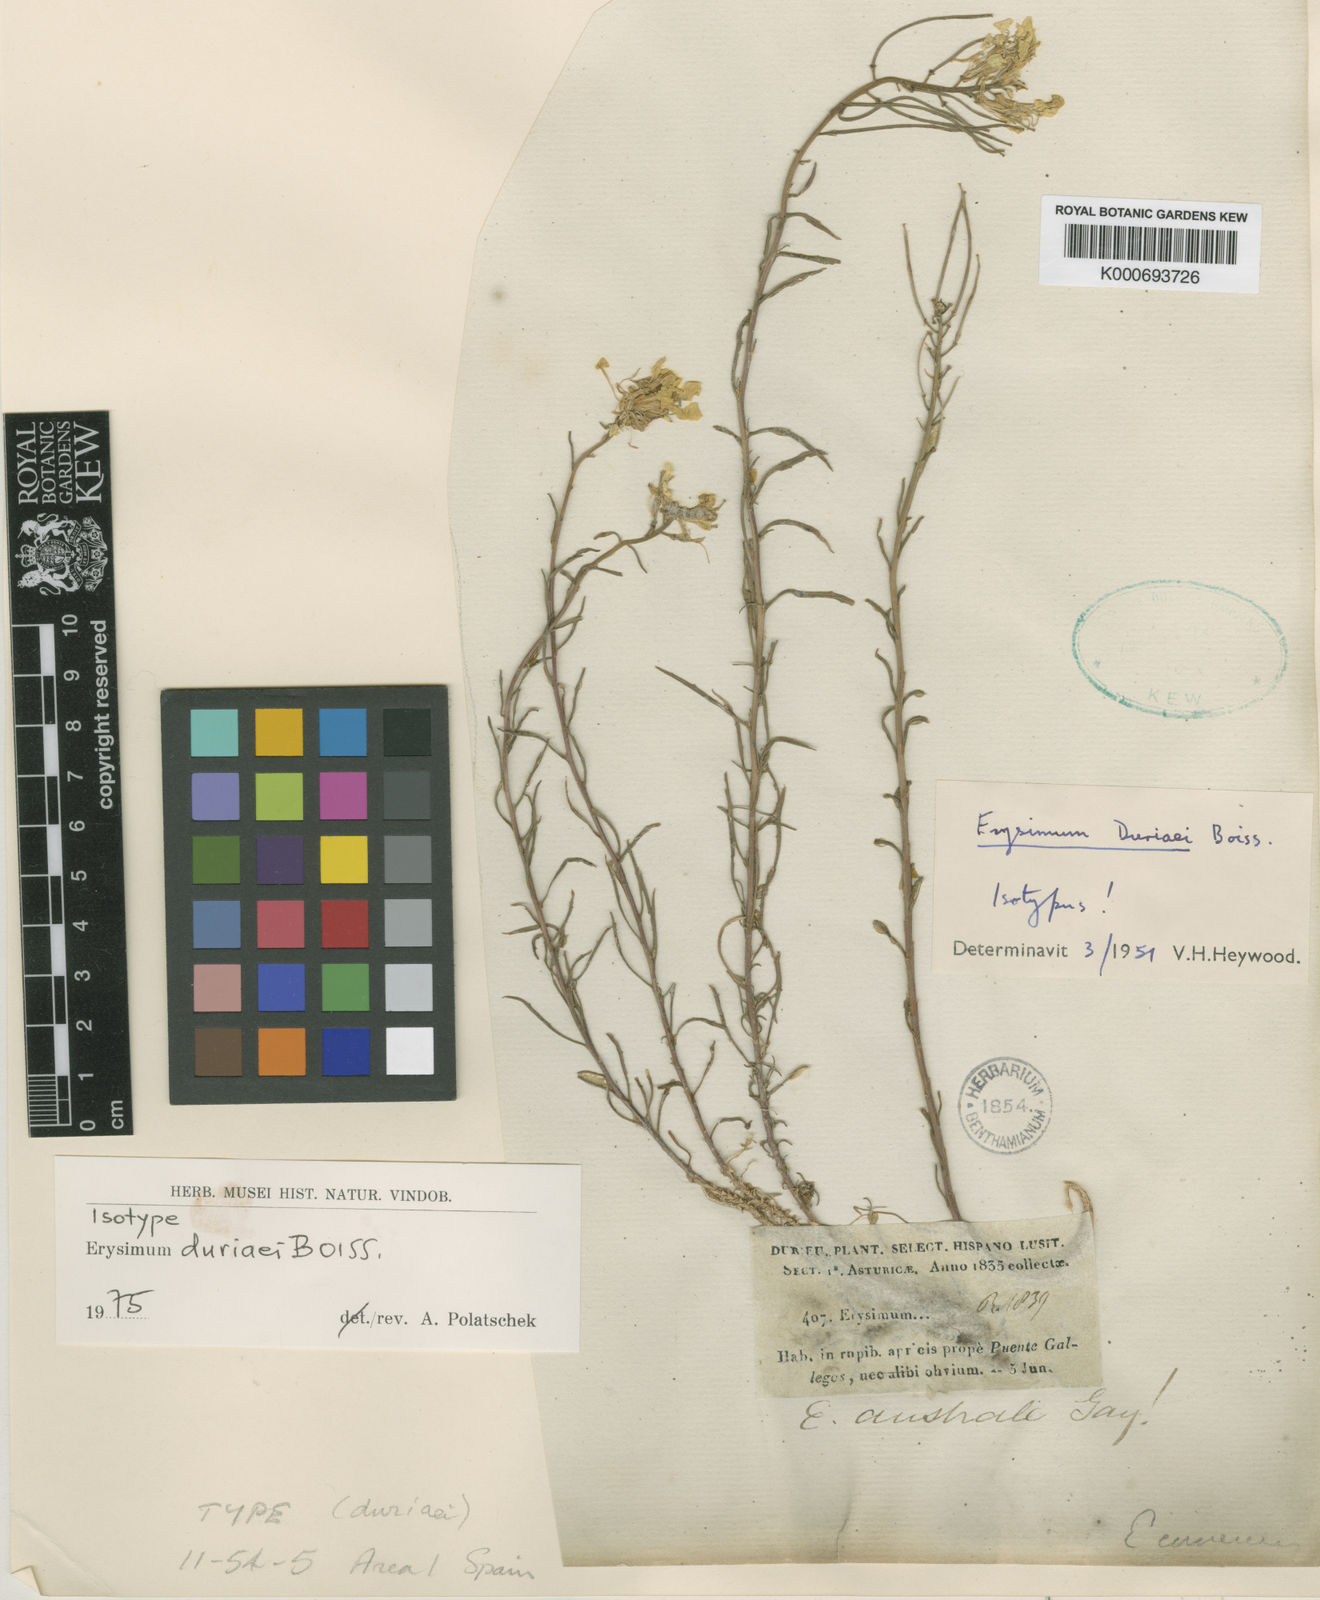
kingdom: Plantae
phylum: Tracheophyta
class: Magnoliopsida
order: Brassicales
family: Brassicaceae
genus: Erysimum
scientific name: Erysimum menziesii
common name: Menzies's wallflower
